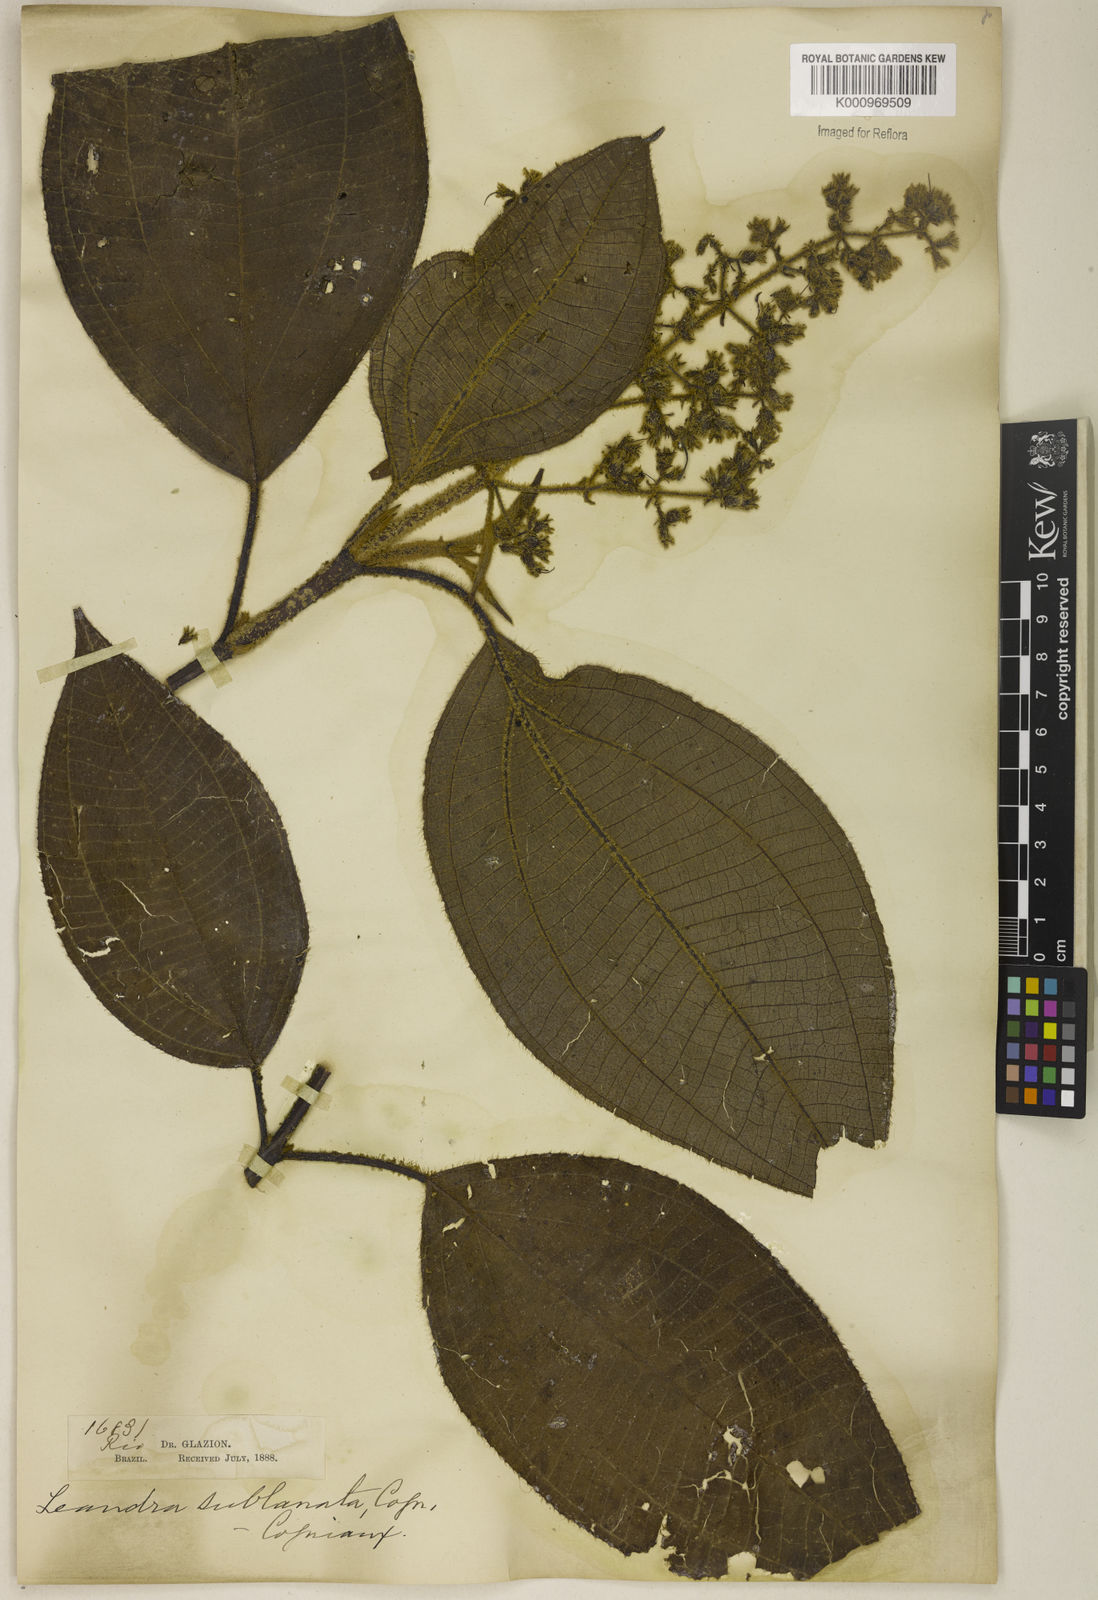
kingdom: Plantae
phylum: Tracheophyta
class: Magnoliopsida
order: Myrtales
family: Melastomataceae
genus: Miconia
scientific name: Miconia sublanata
